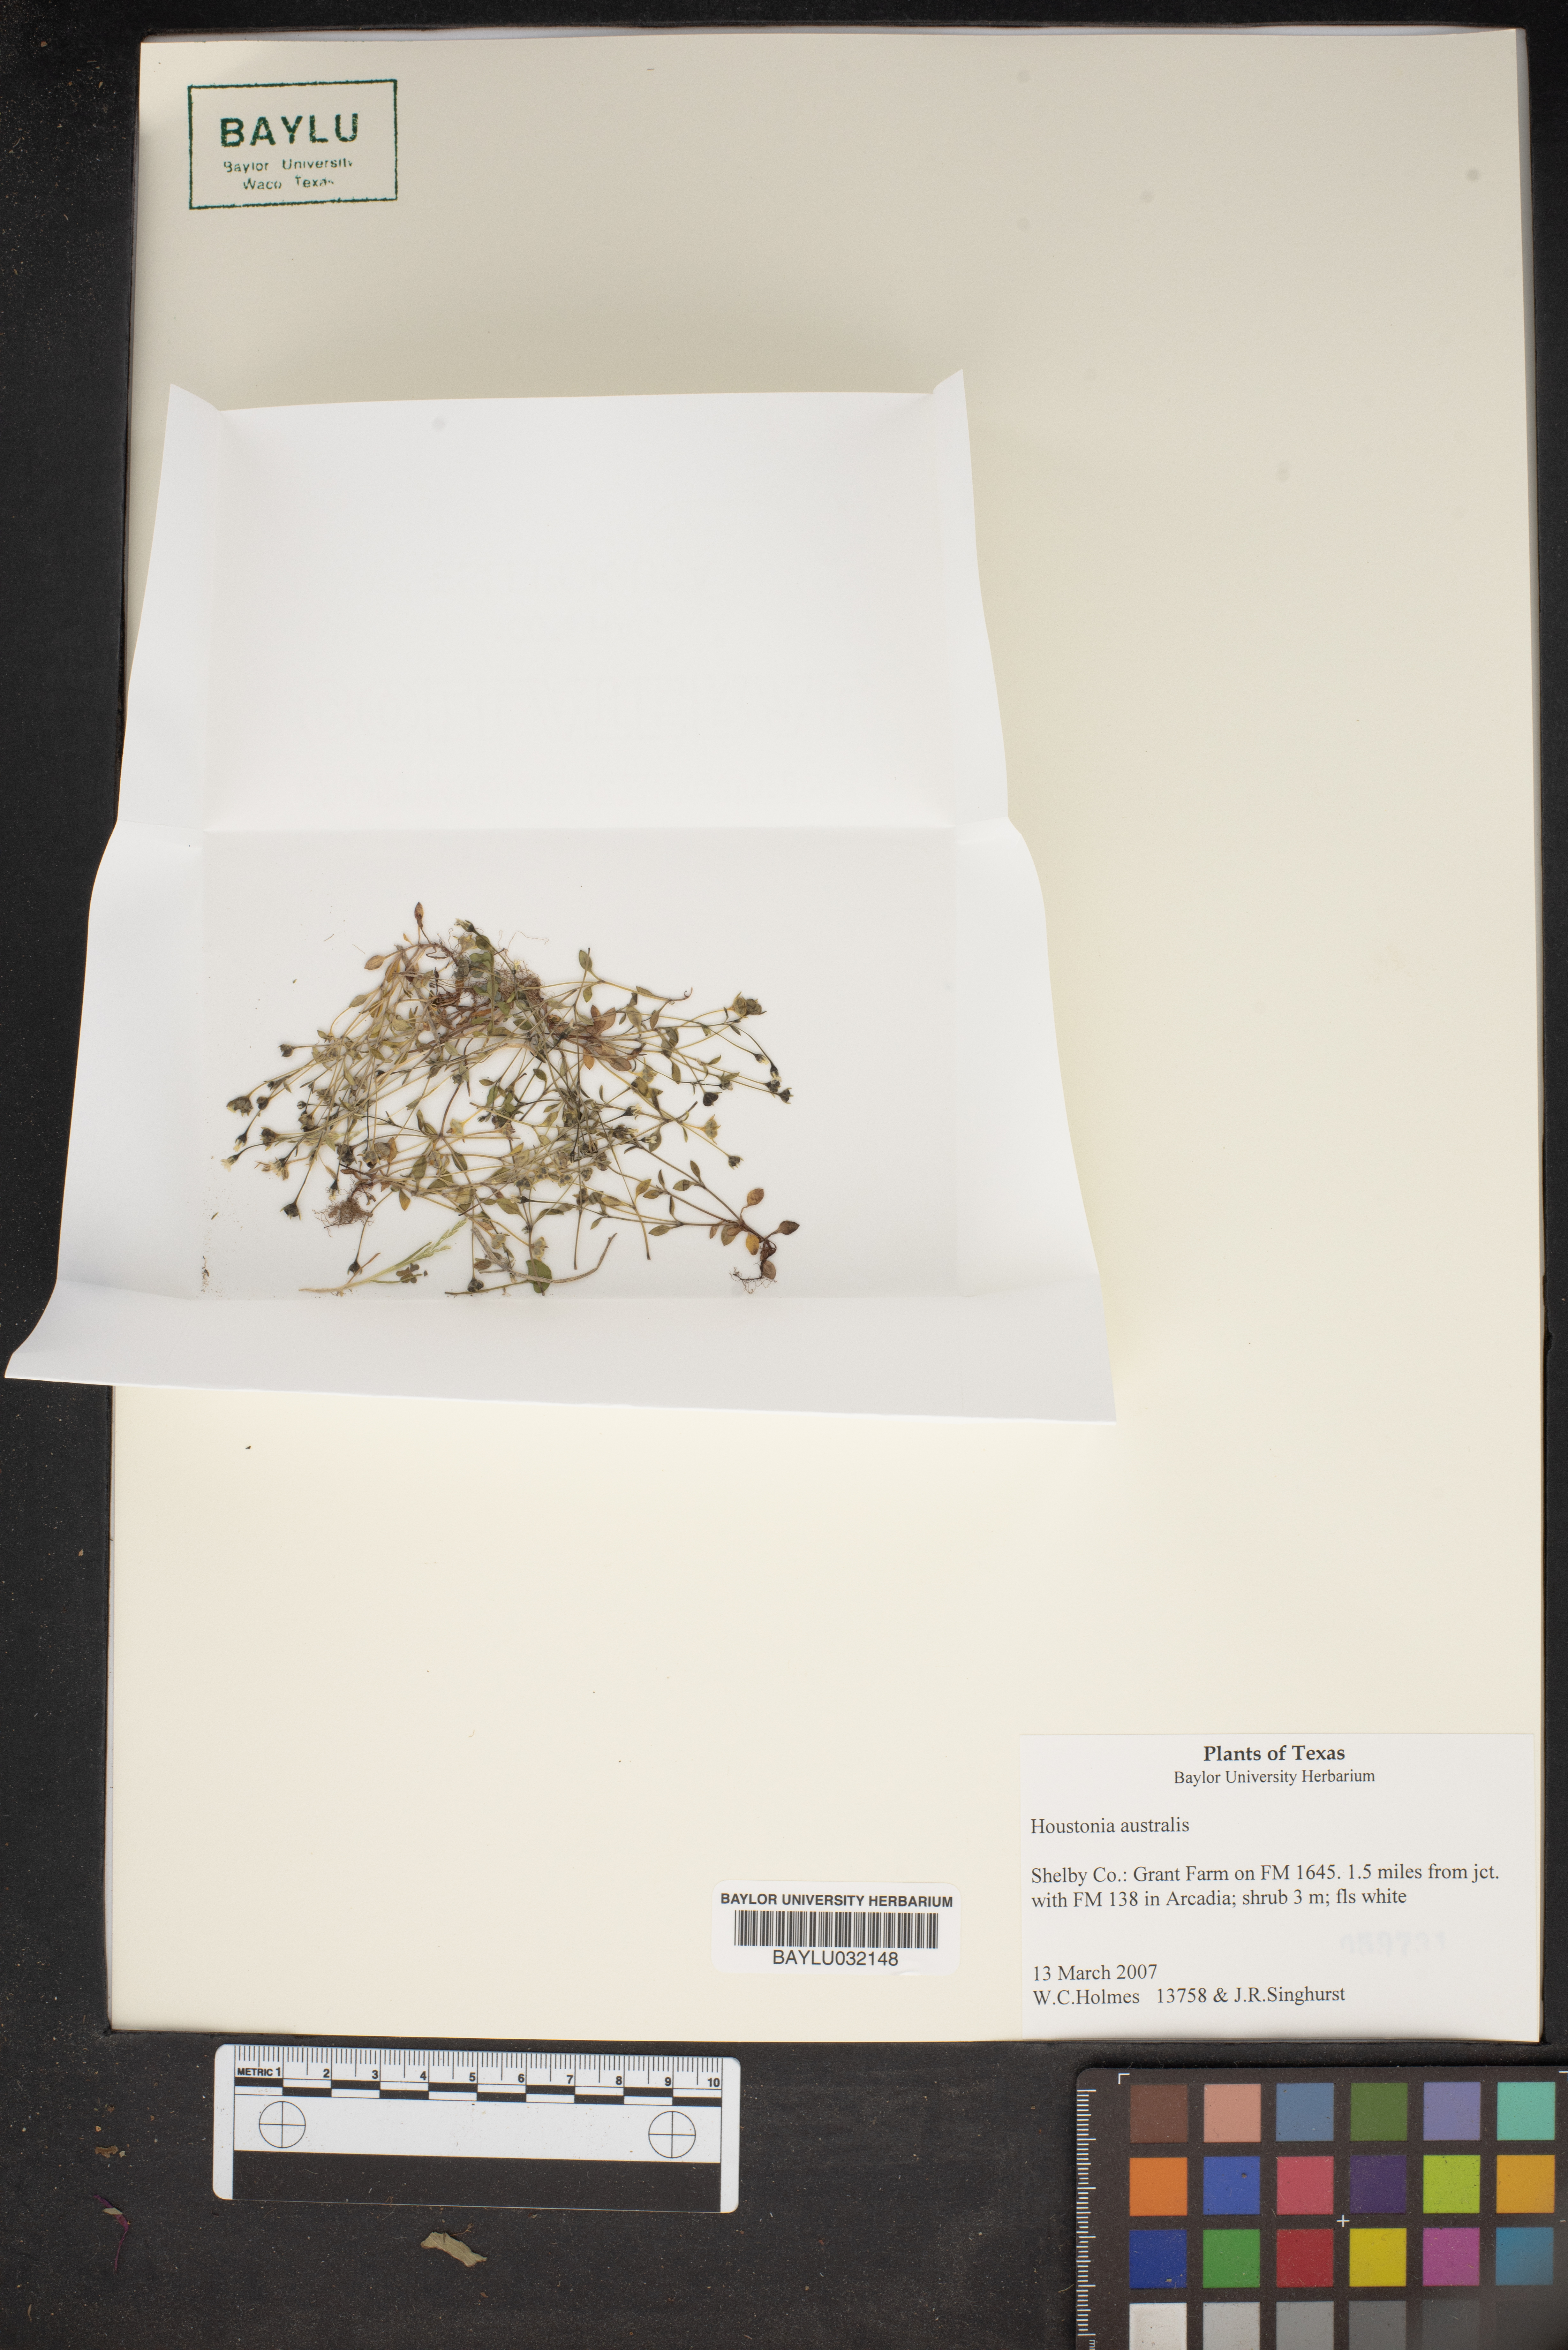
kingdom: Plantae
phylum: Tracheophyta
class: Magnoliopsida
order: Gentianales
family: Rubiaceae
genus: Stenotis
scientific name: Stenotis australis
